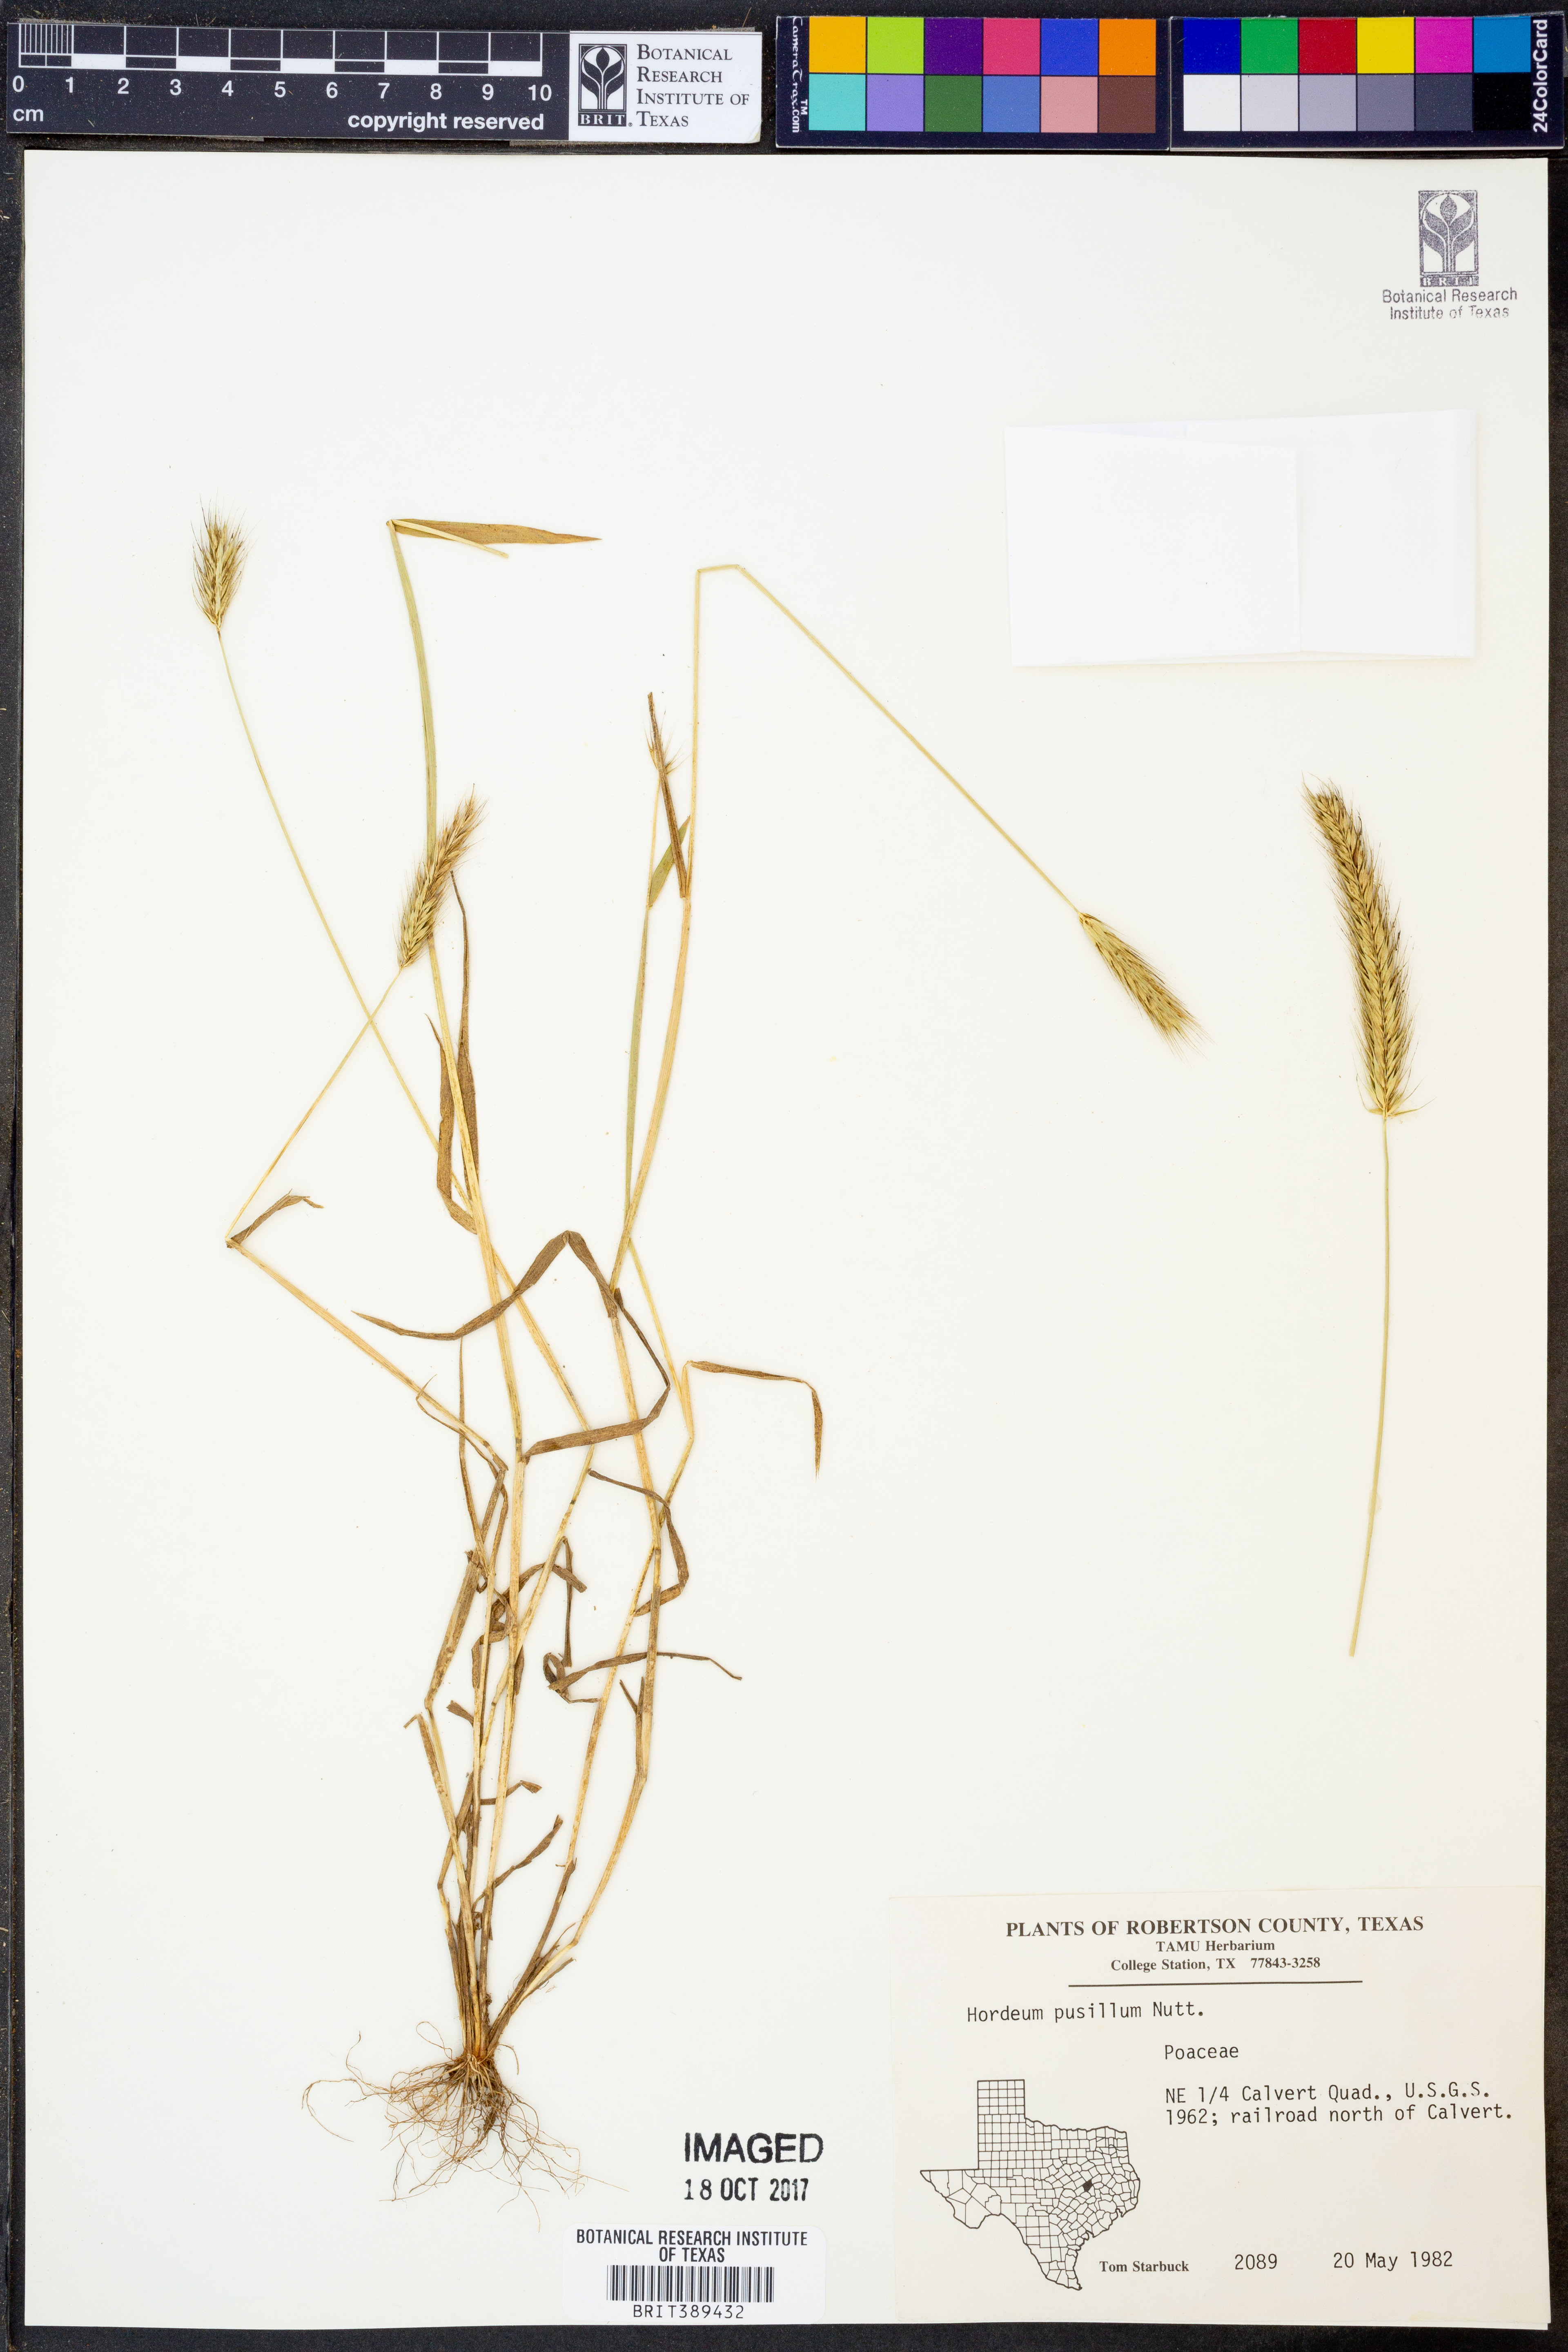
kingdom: Plantae
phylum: Tracheophyta
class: Liliopsida
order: Poales
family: Poaceae
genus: Hordeum
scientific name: Hordeum pusillum
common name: Little barley
